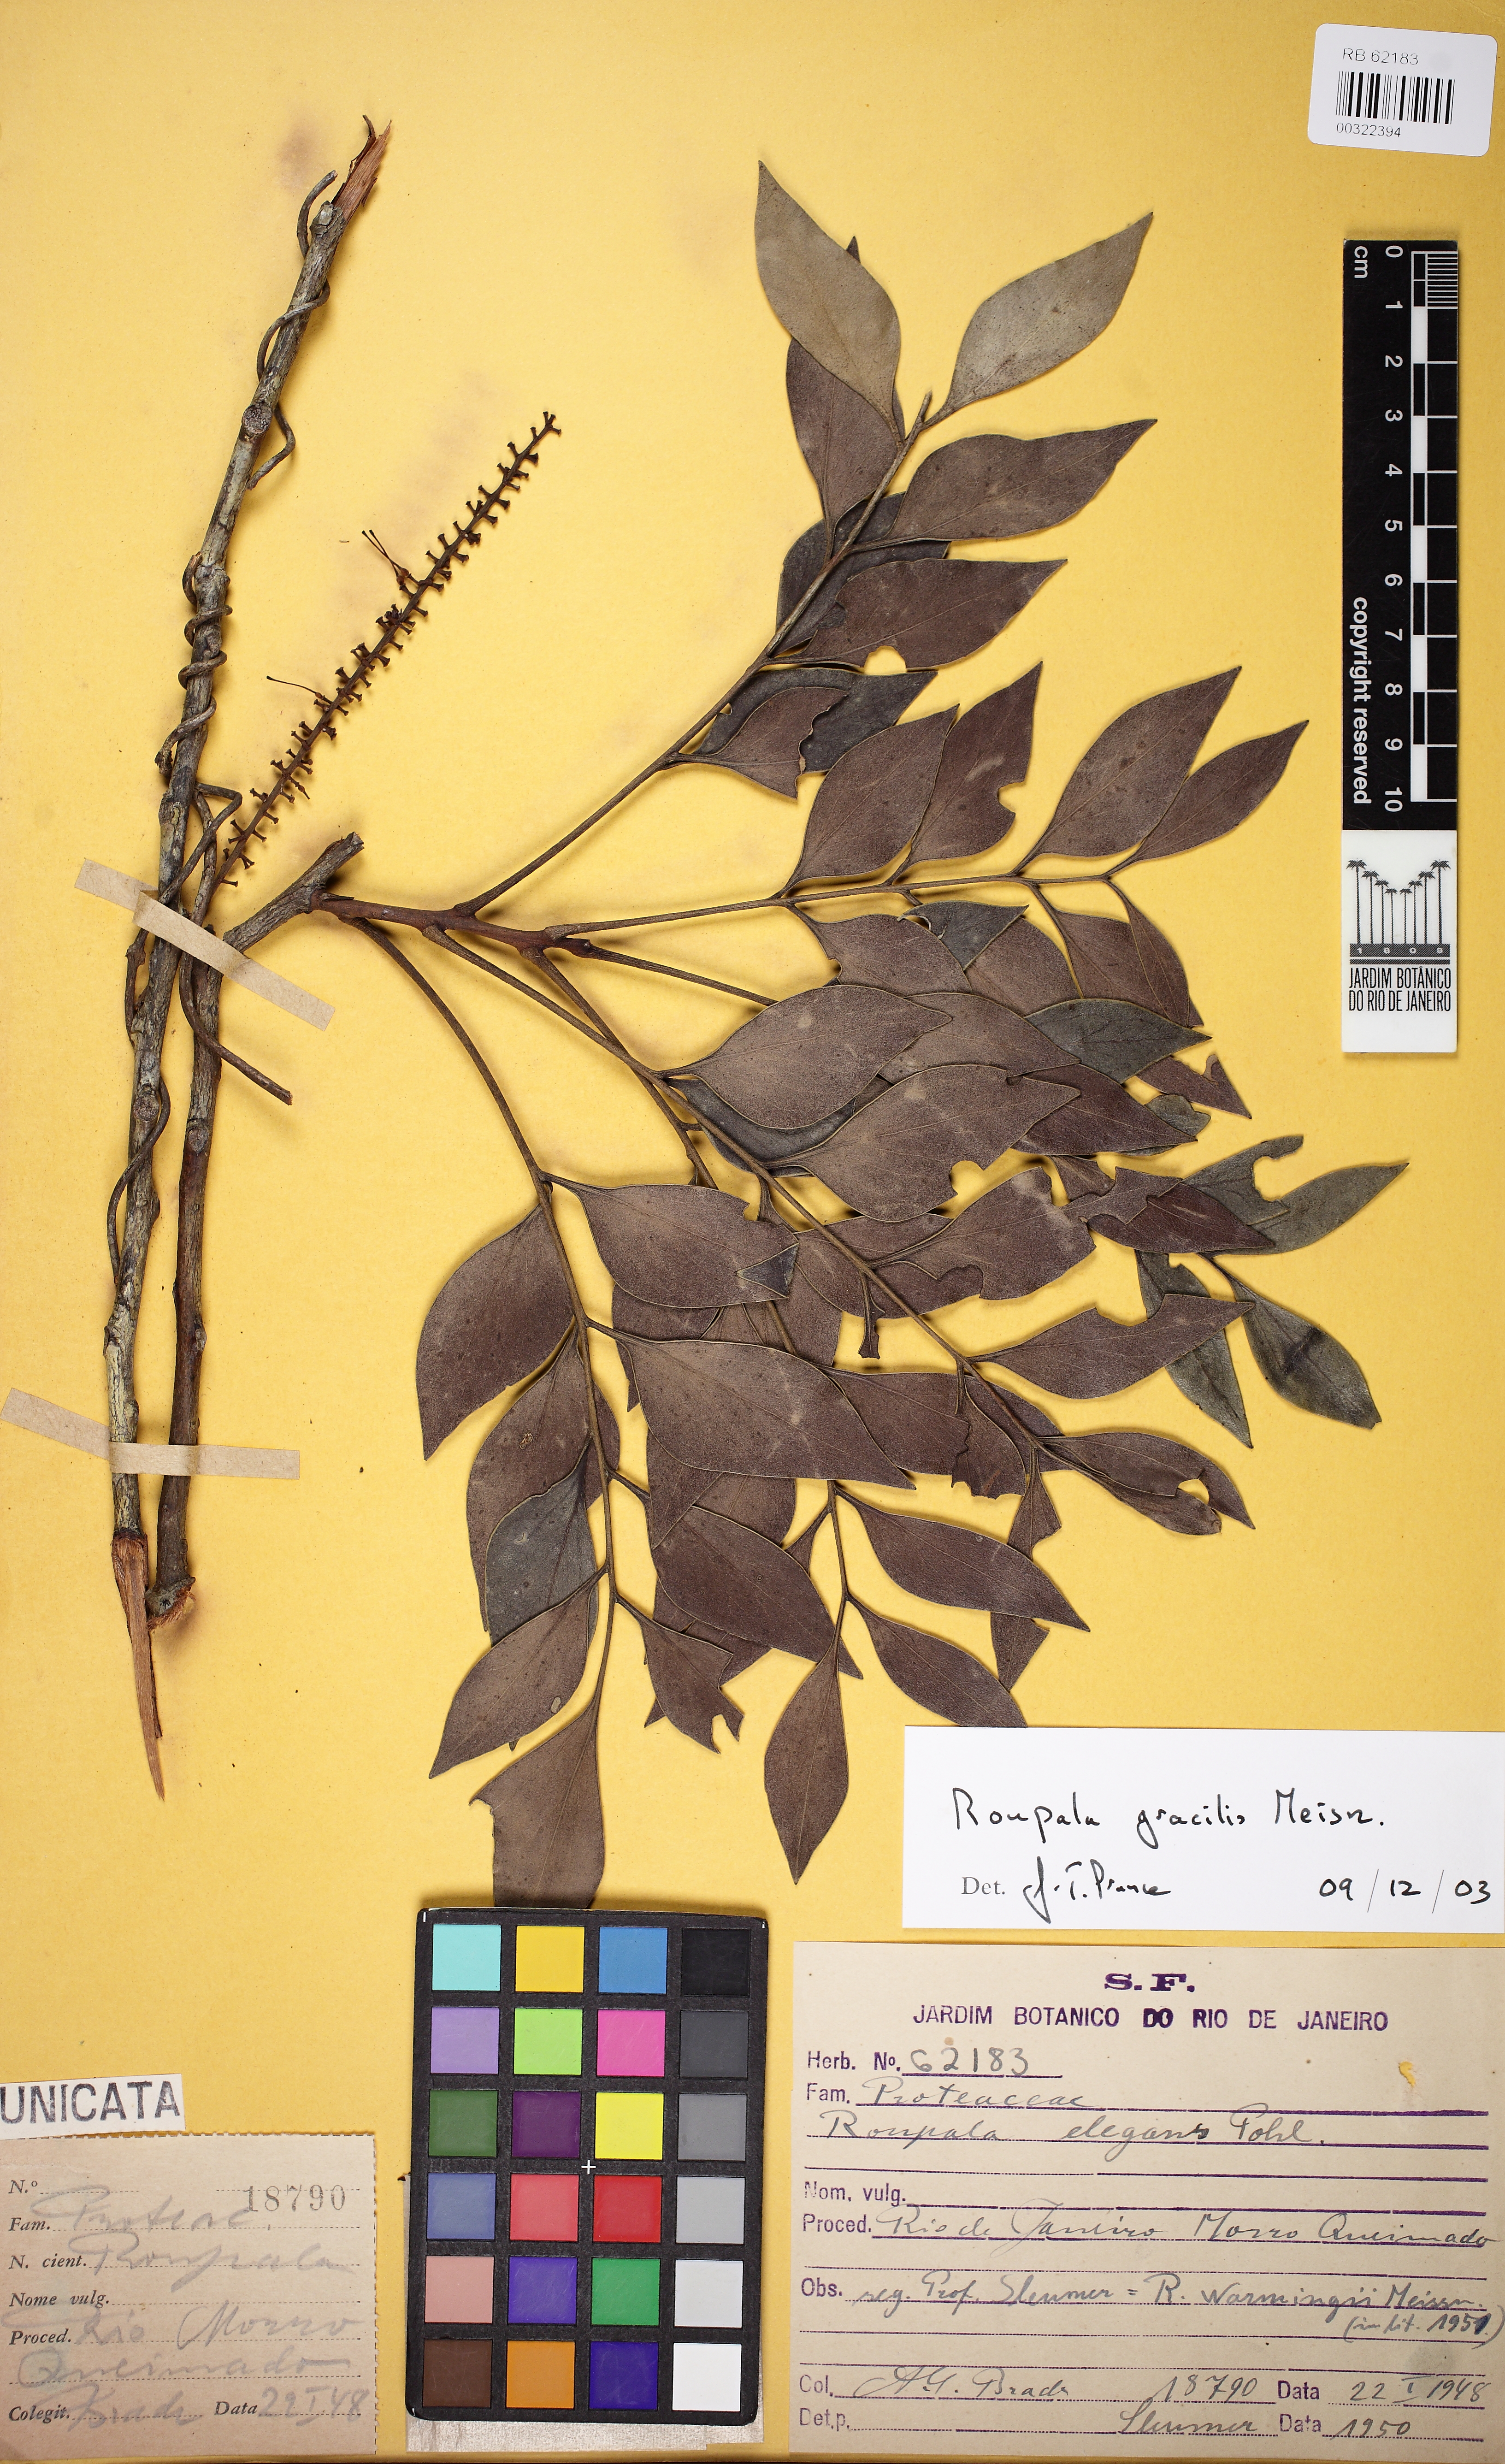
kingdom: Plantae
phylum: Tracheophyta
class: Magnoliopsida
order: Proteales
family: Proteaceae
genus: Roupala
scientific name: Roupala gracilis
